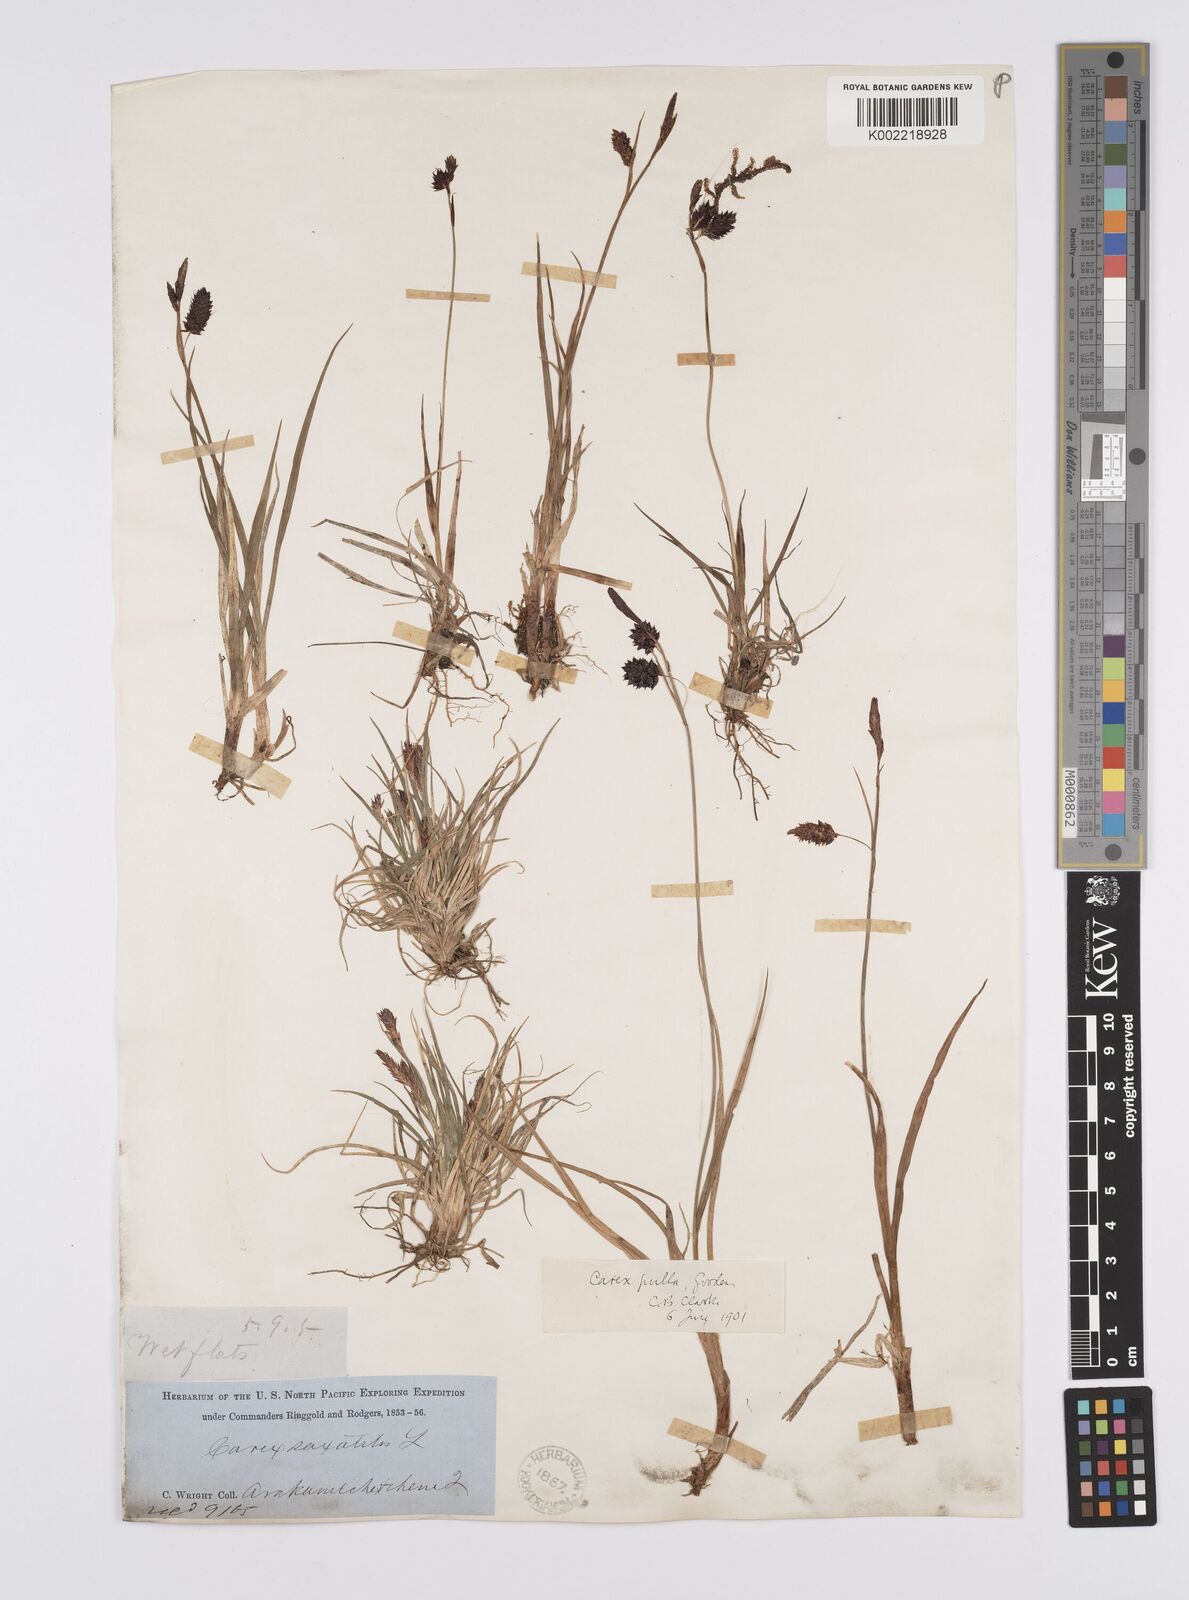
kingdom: Plantae
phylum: Tracheophyta
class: Liliopsida
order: Poales
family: Cyperaceae
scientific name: Cyperaceae
